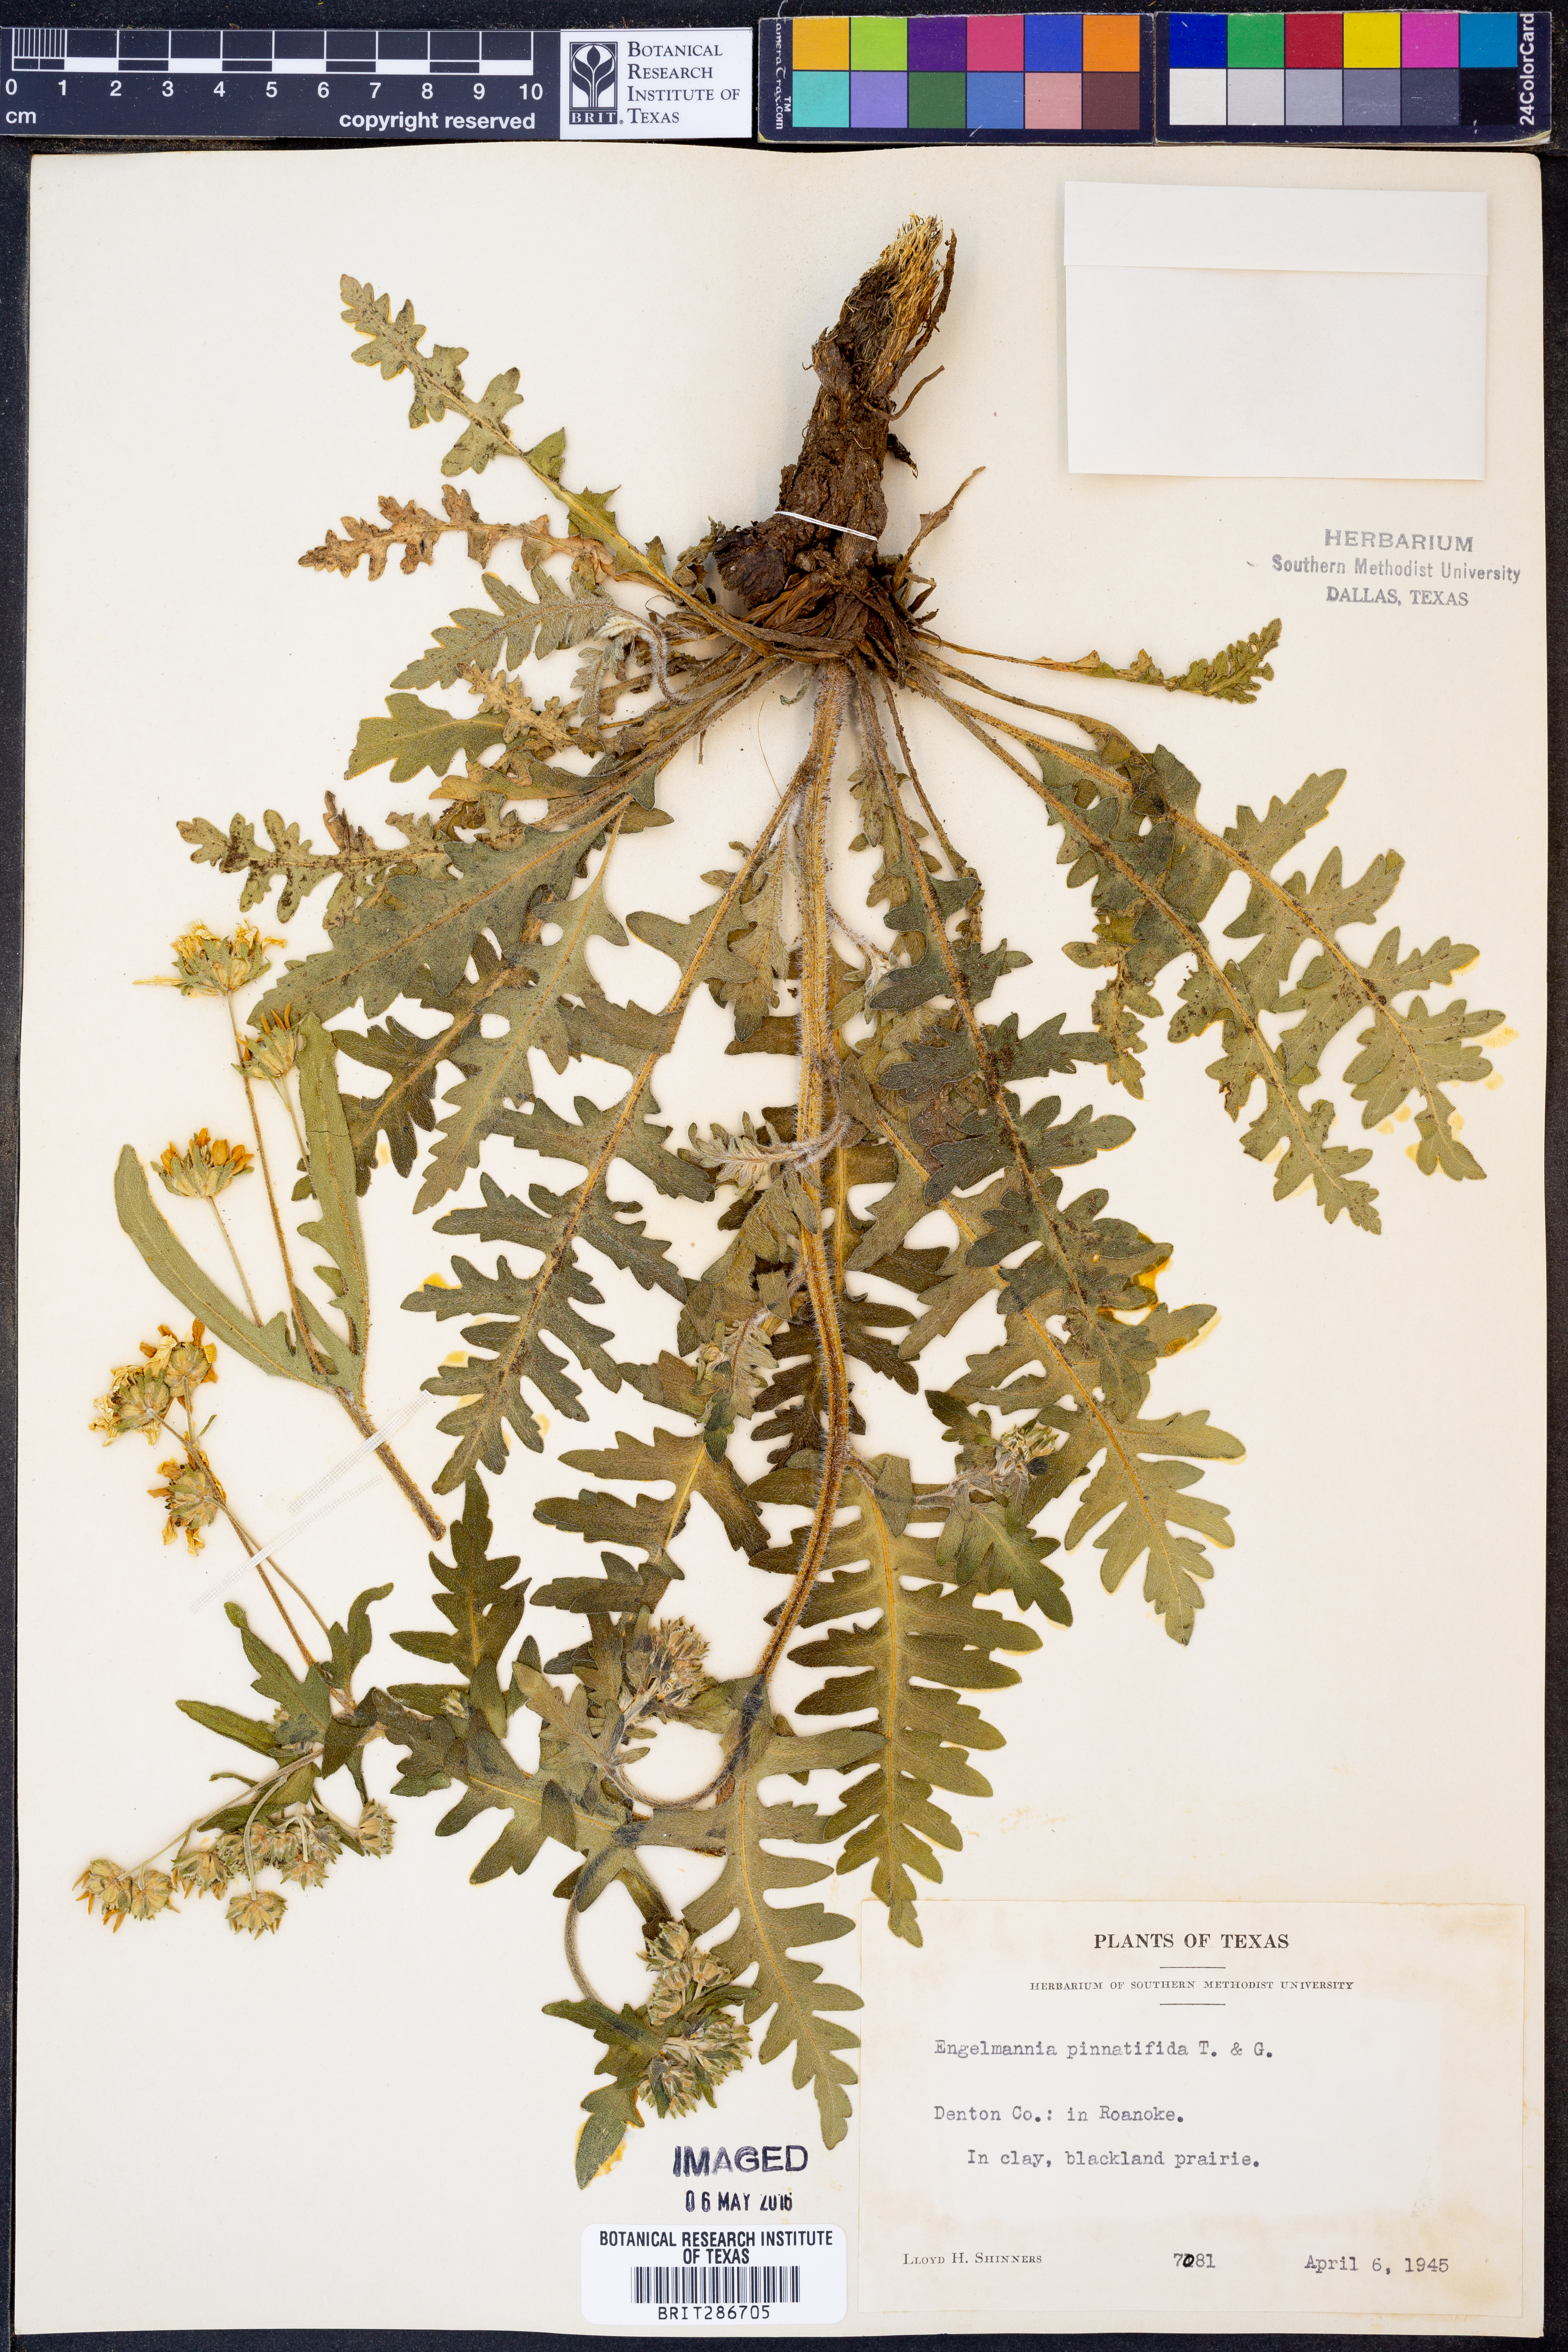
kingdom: Plantae
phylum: Tracheophyta
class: Magnoliopsida
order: Asterales
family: Asteraceae
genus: Engelmannia
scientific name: Engelmannia peristenia
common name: Engelmann's daisy
